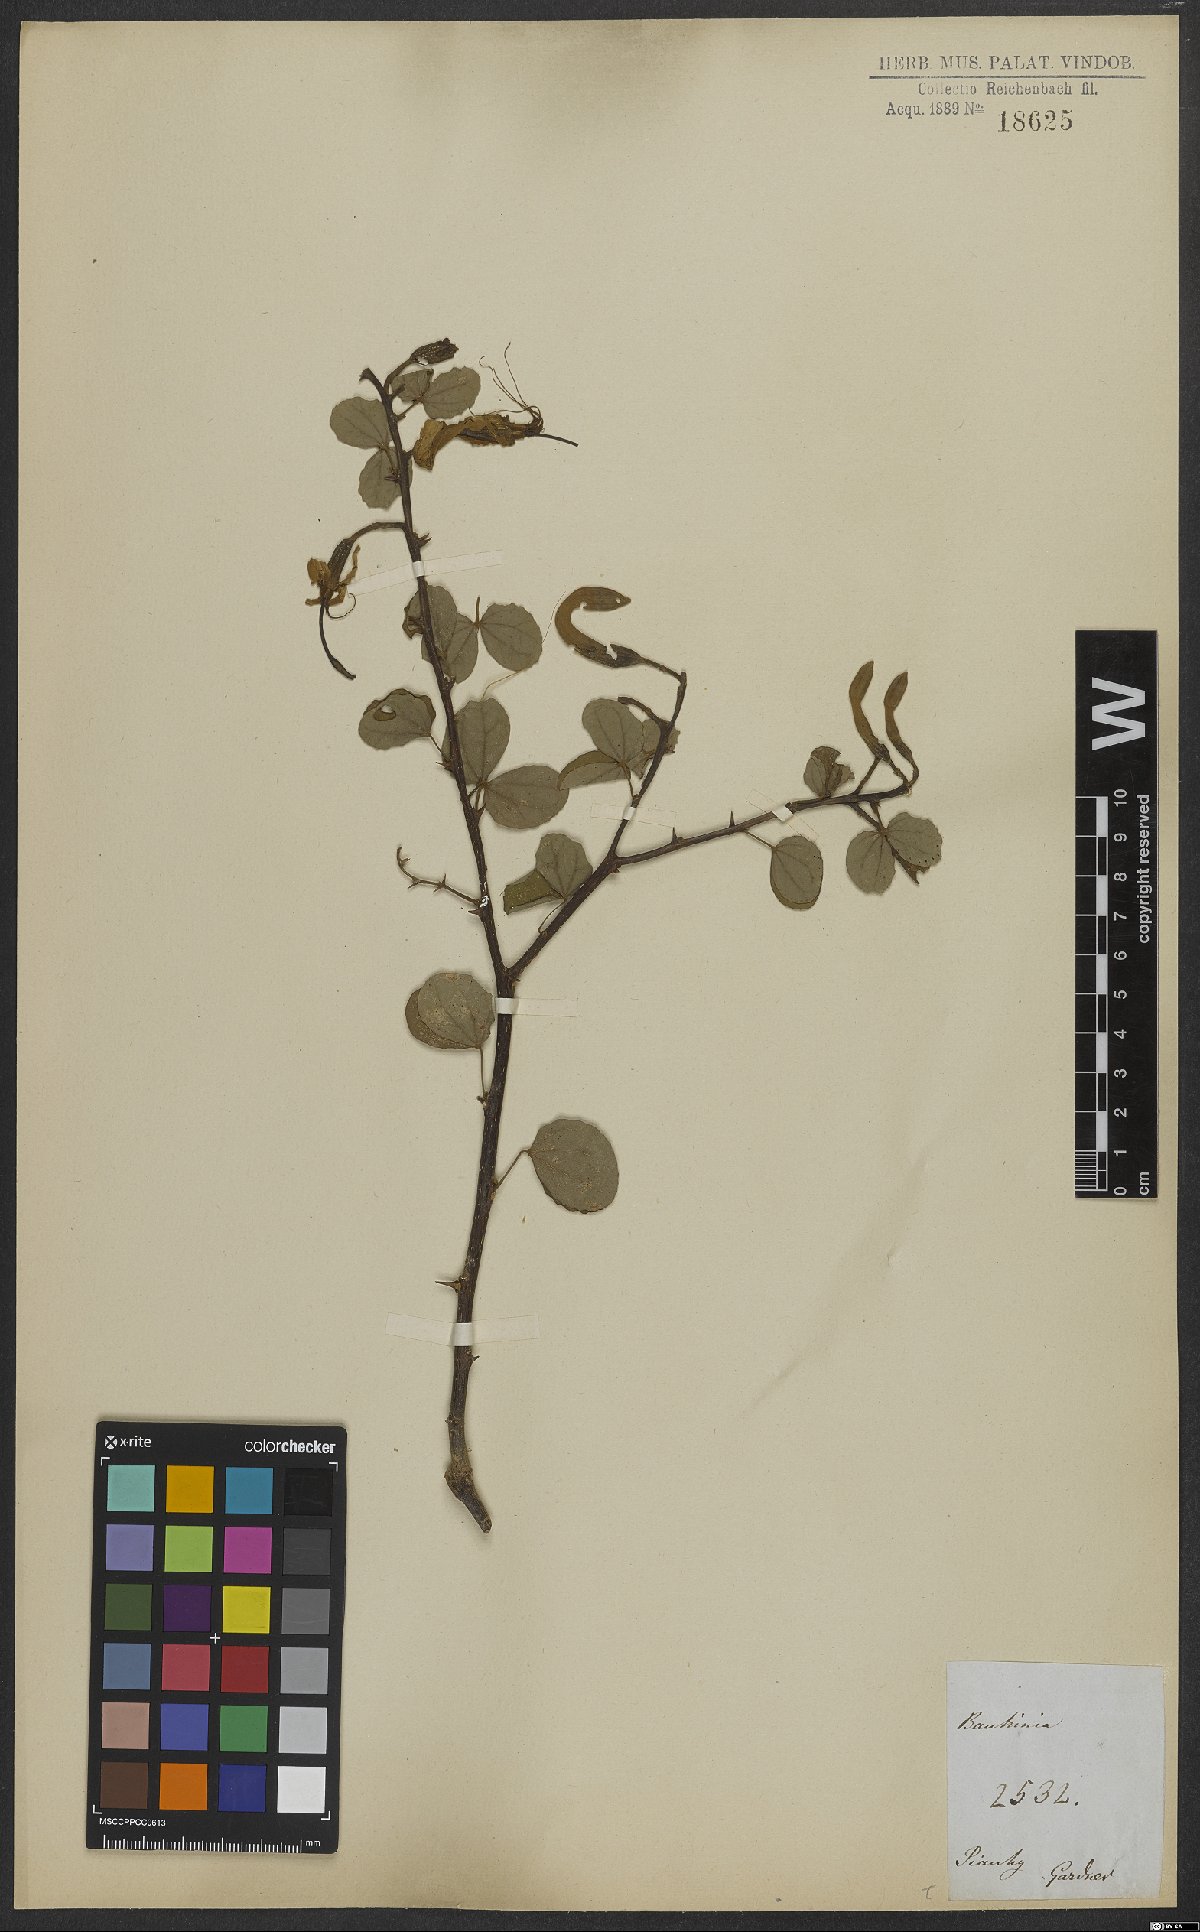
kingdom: Plantae
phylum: Tracheophyta
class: Magnoliopsida
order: Fabales
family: Fabaceae
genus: Bauhinia
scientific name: Bauhinia bauhinioides
